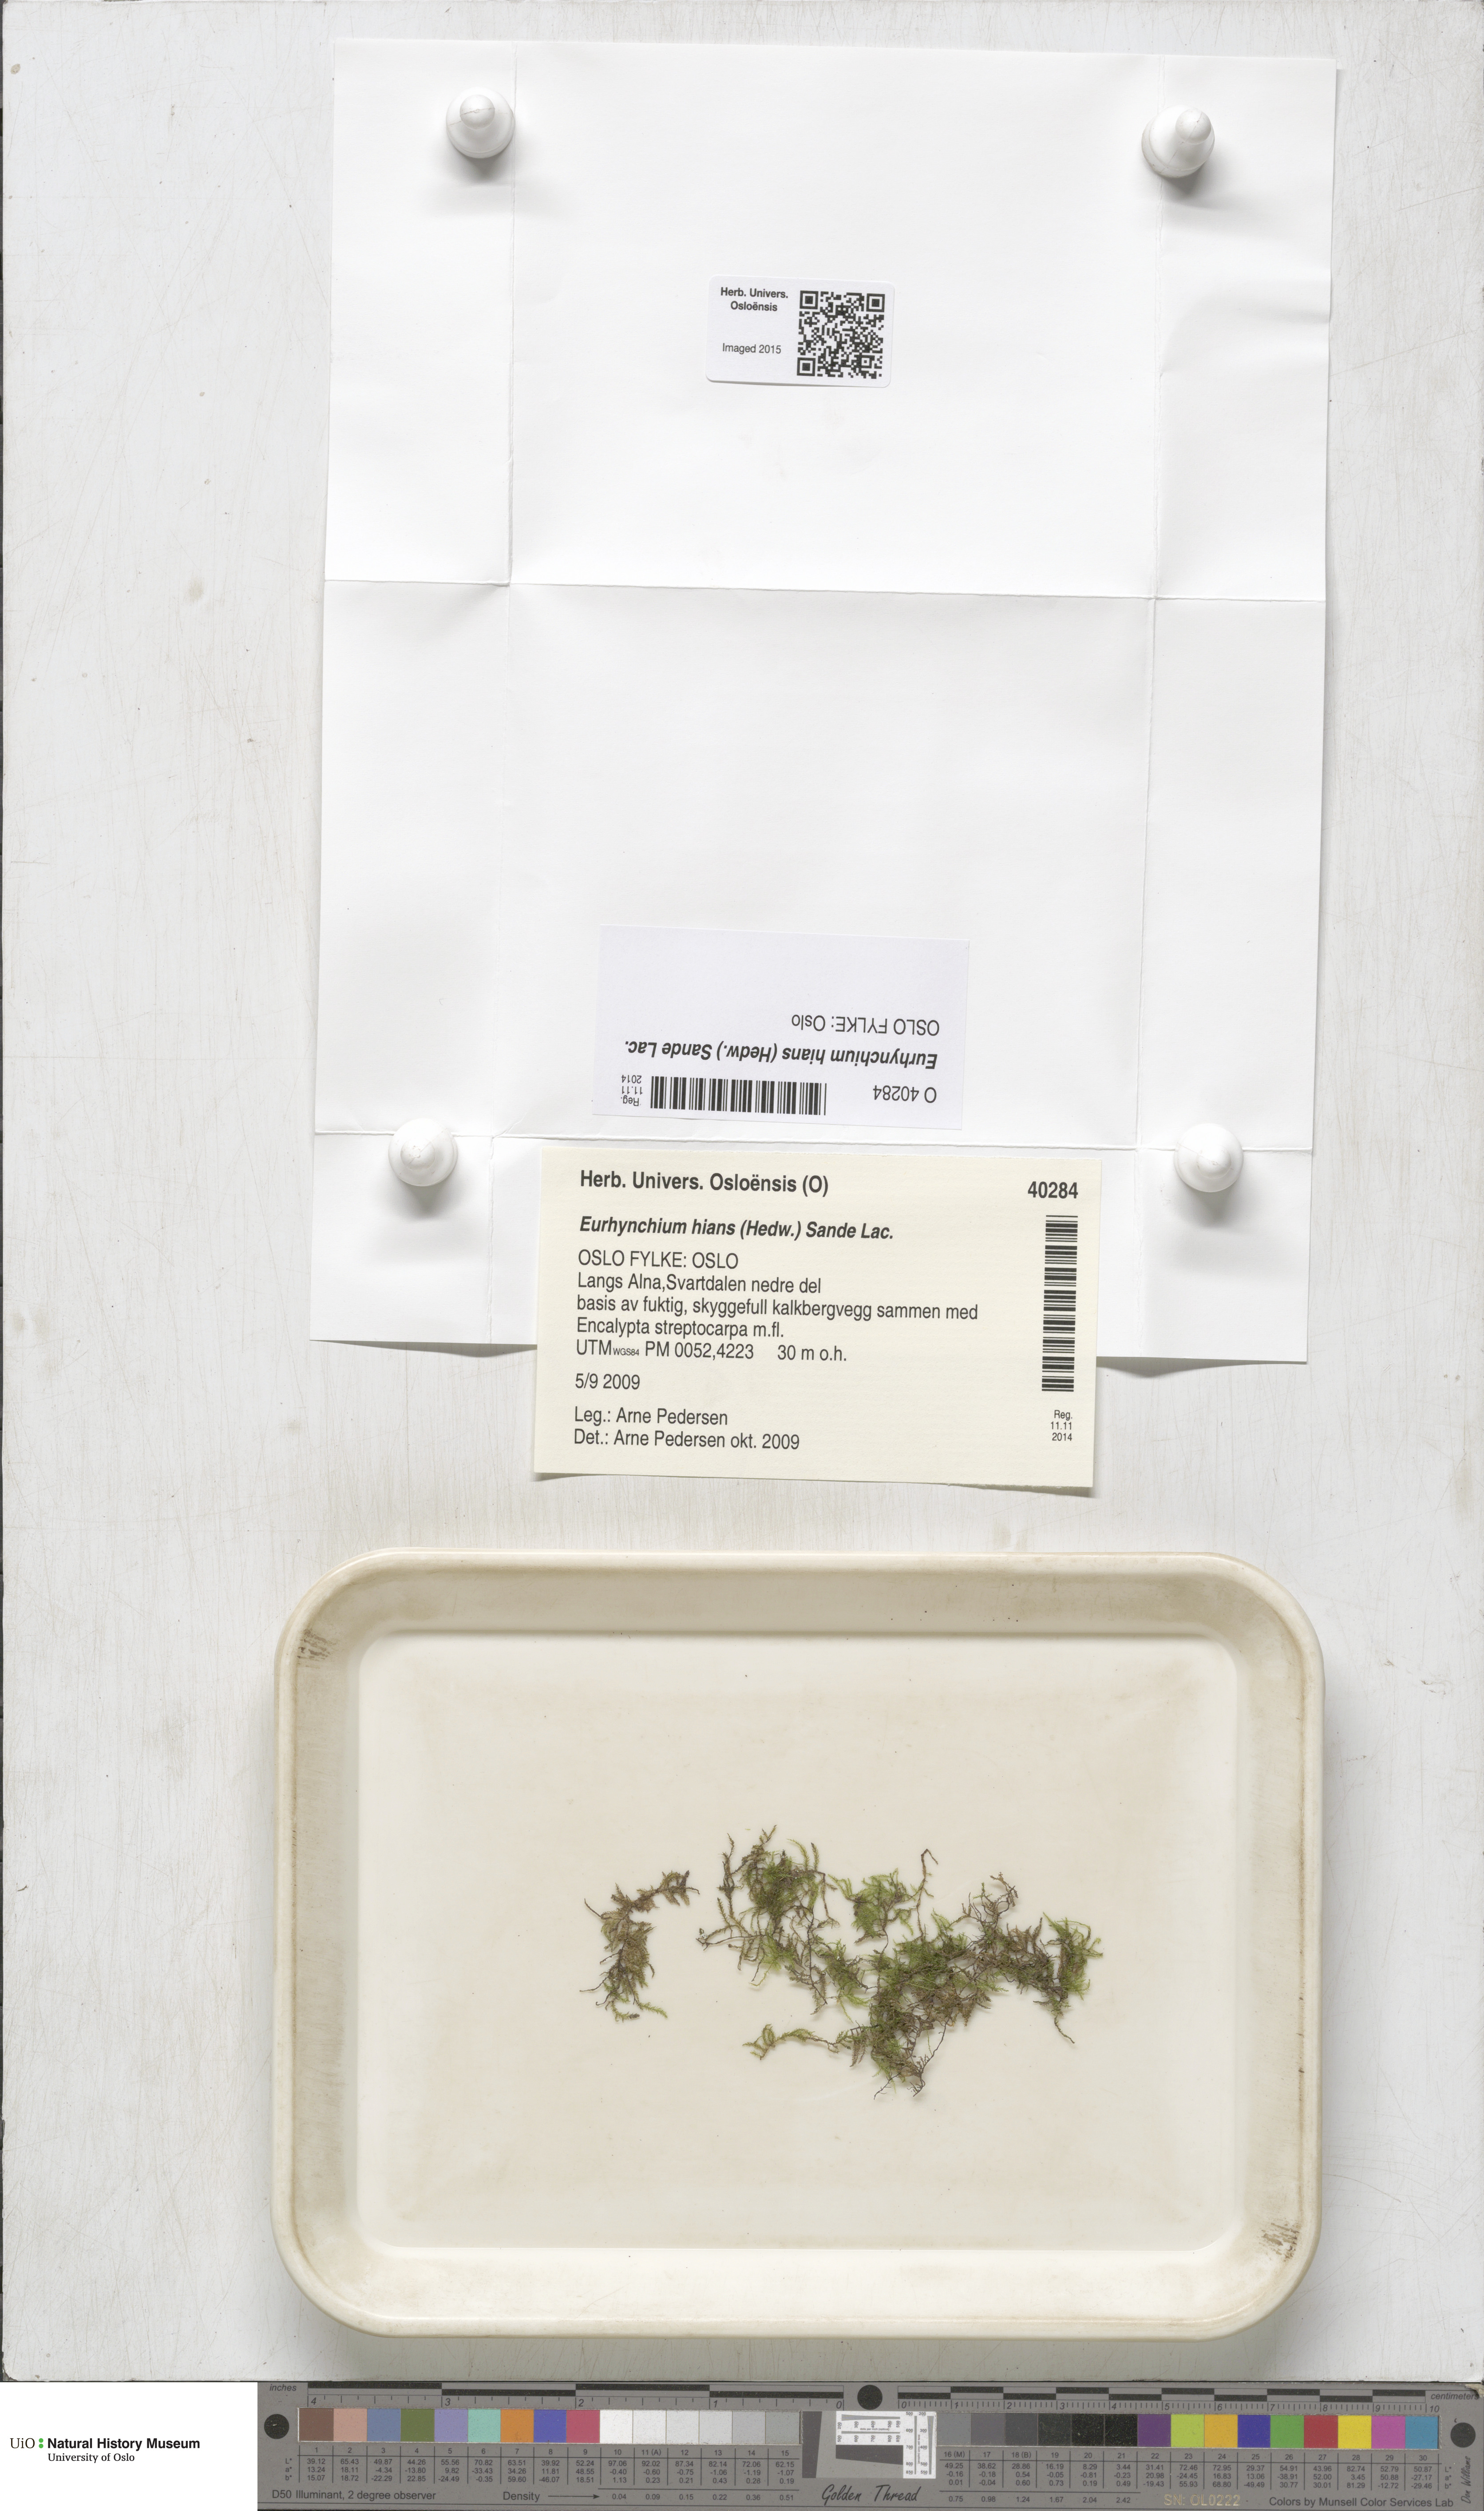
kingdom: Plantae
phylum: Bryophyta
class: Bryopsida
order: Hypnales
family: Brachytheciaceae
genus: Oxyrrhynchium
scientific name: Oxyrrhynchium hians
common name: Spreading beaked moss
